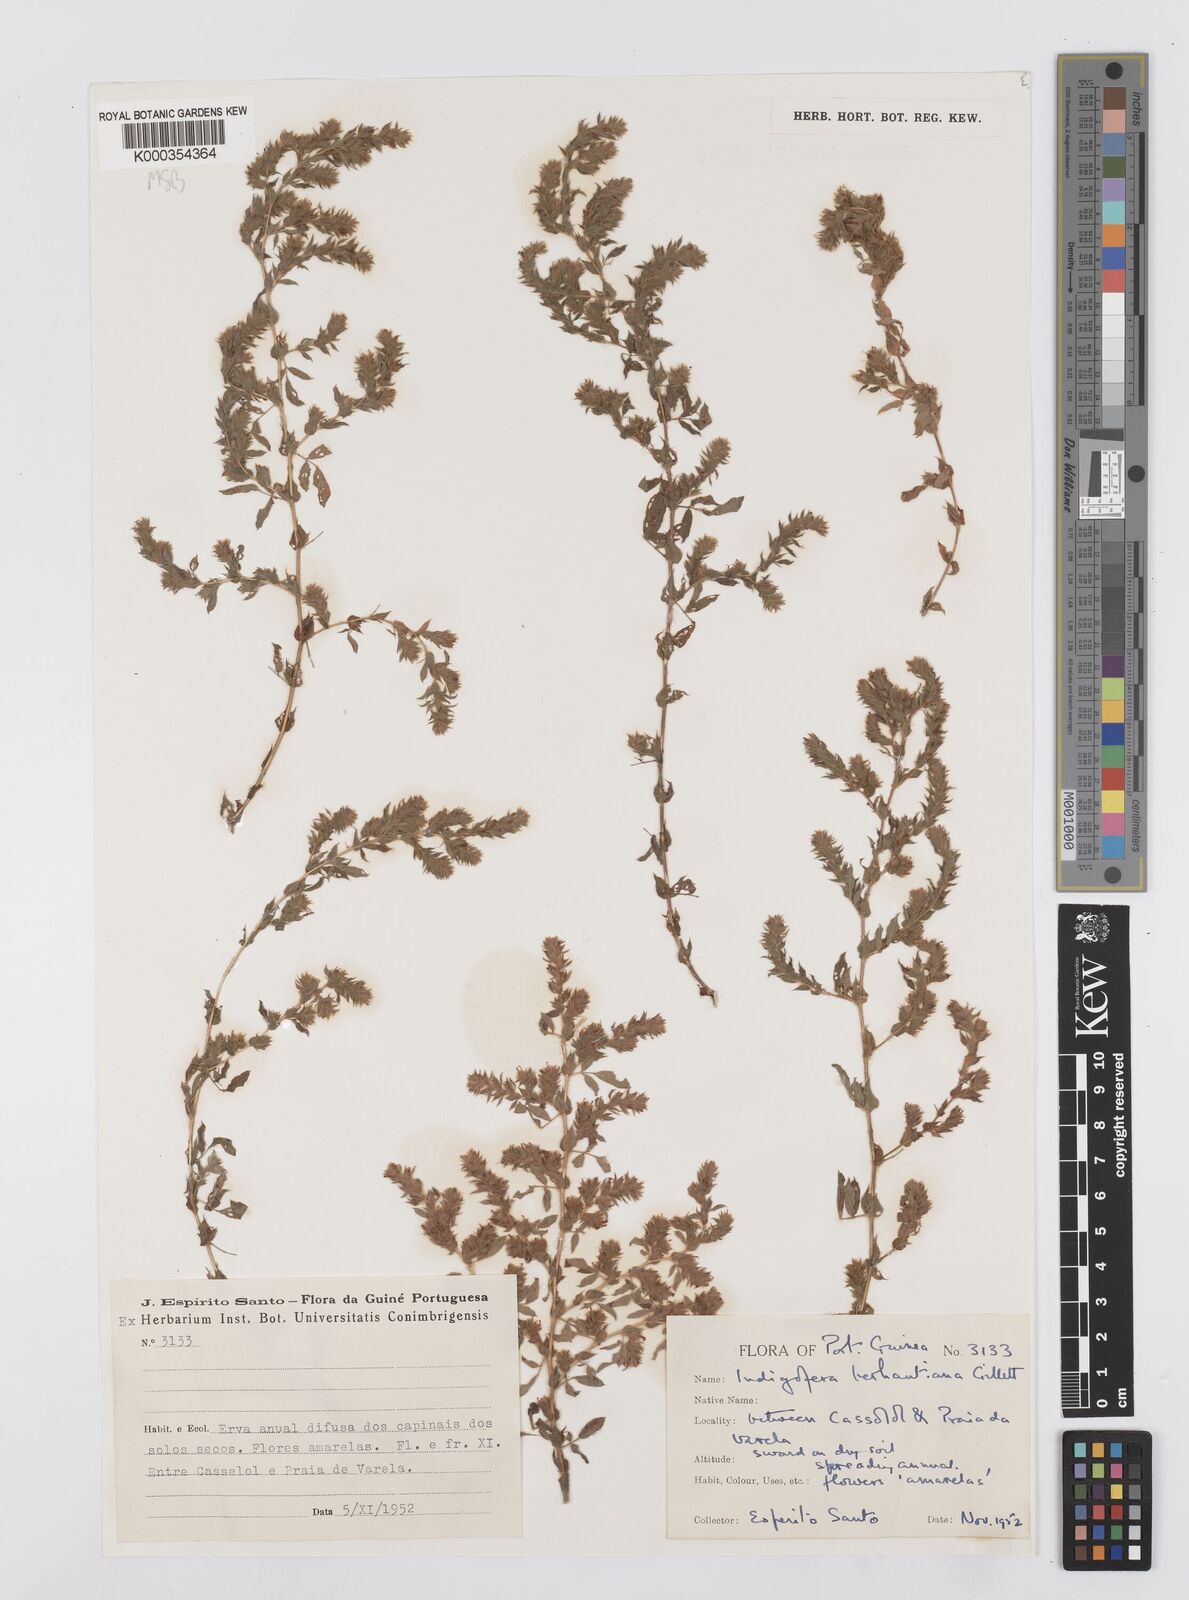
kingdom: Plantae
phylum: Tracheophyta
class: Magnoliopsida
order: Fabales
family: Fabaceae
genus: Indigofera
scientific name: Indigofera berhautiana
